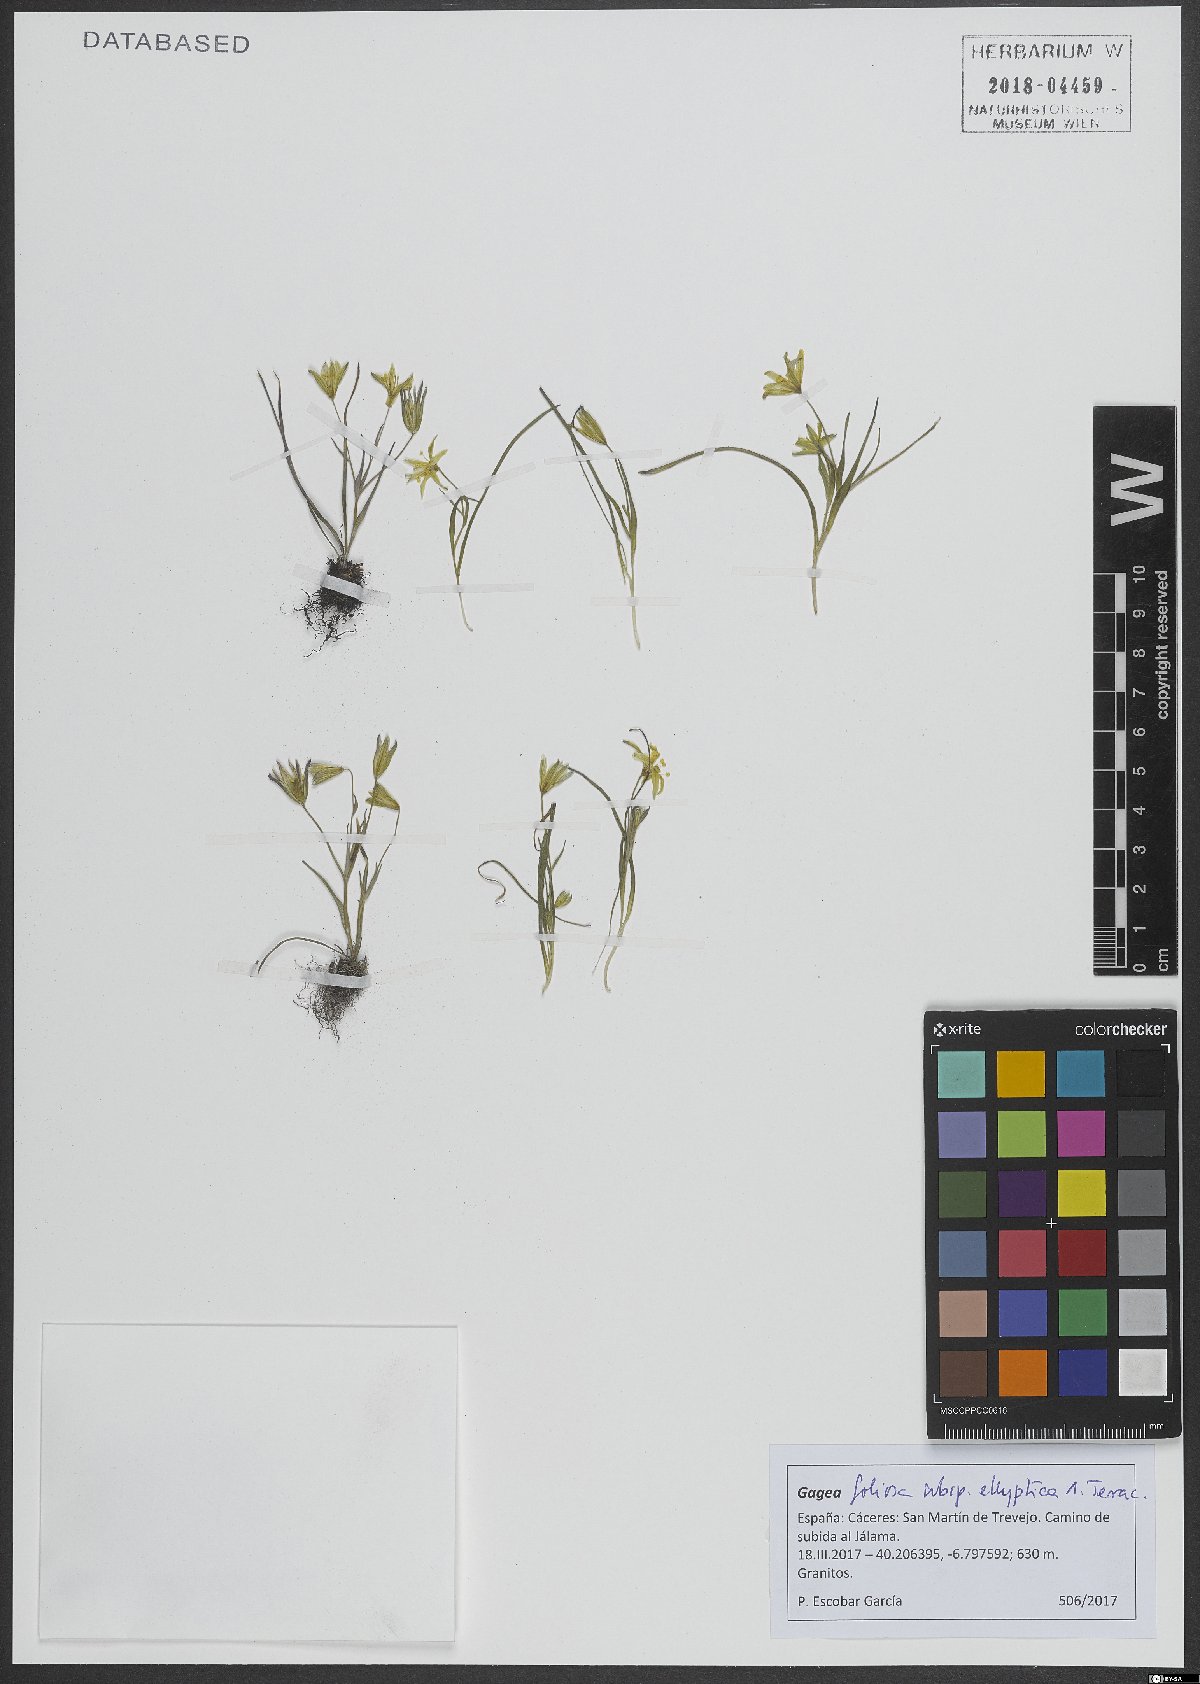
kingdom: Plantae
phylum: Tracheophyta
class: Liliopsida
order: Liliales
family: Liliaceae
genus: Gagea
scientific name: Gagea lusitanica
